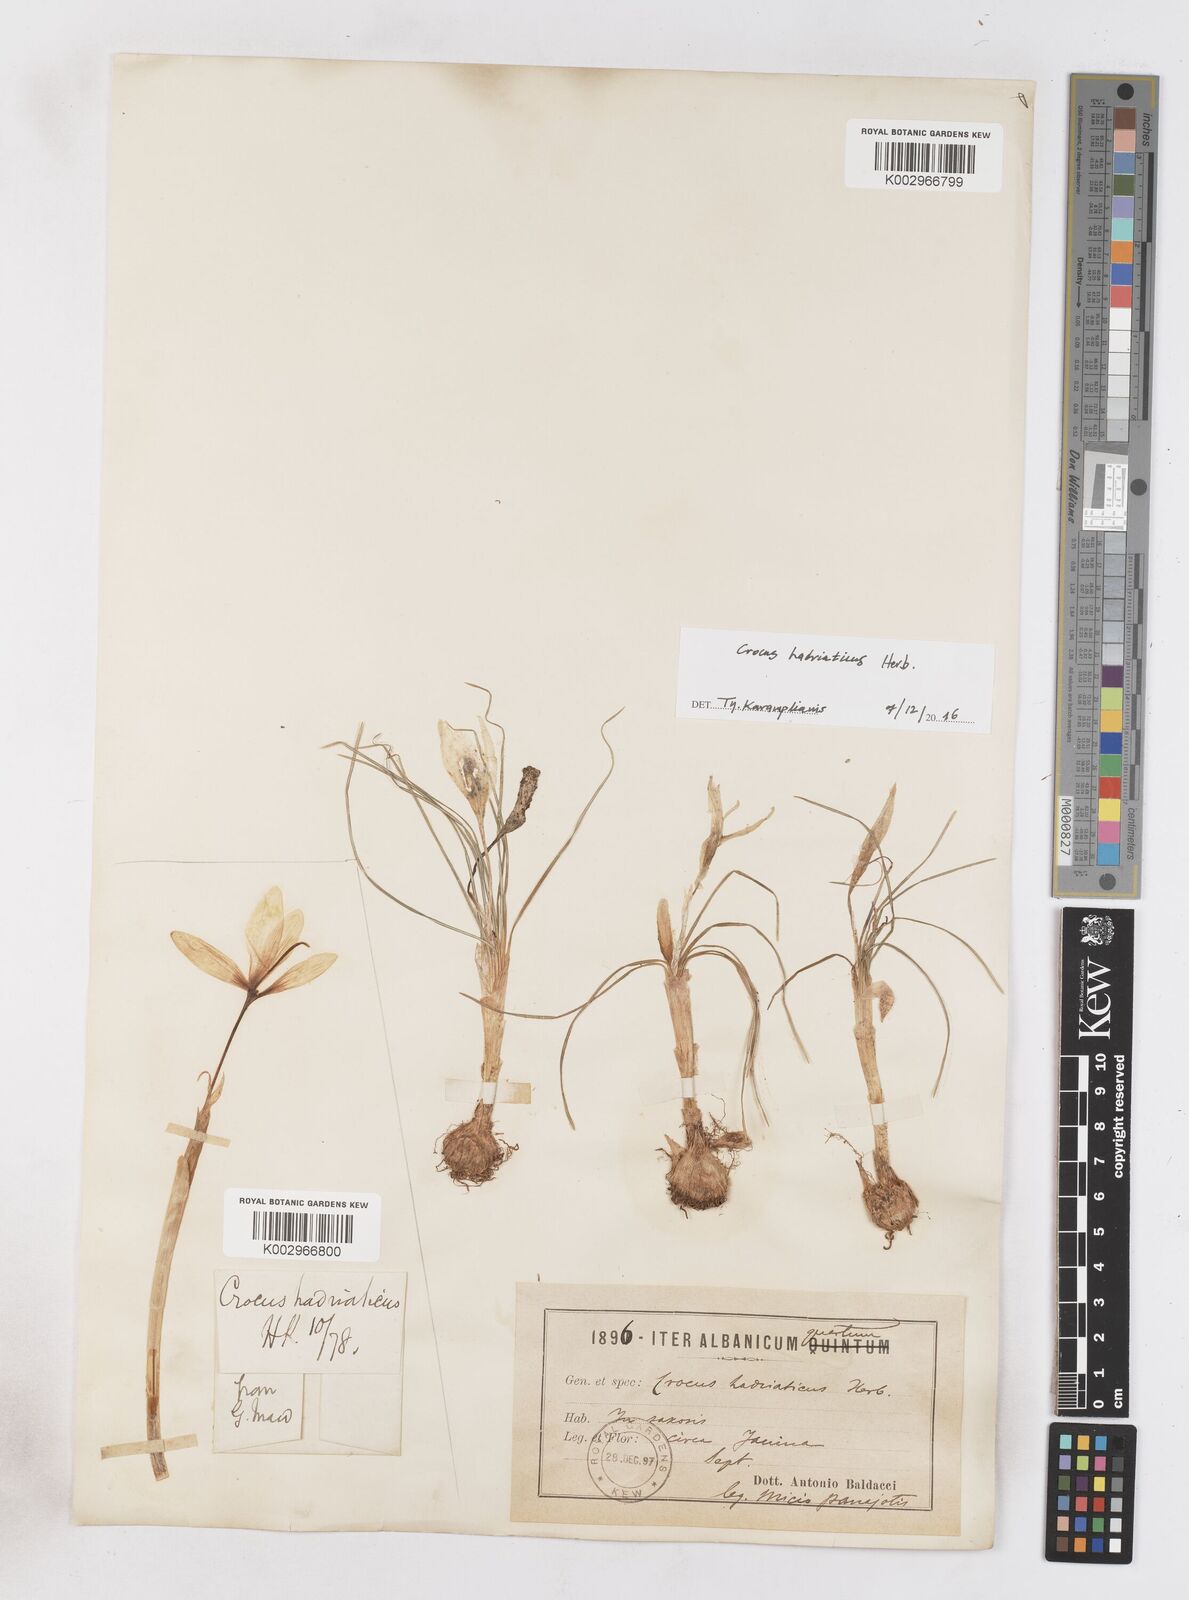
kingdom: Plantae
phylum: Tracheophyta
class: Liliopsida
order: Asparagales
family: Iridaceae
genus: Crocus
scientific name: Crocus hadriaticus
